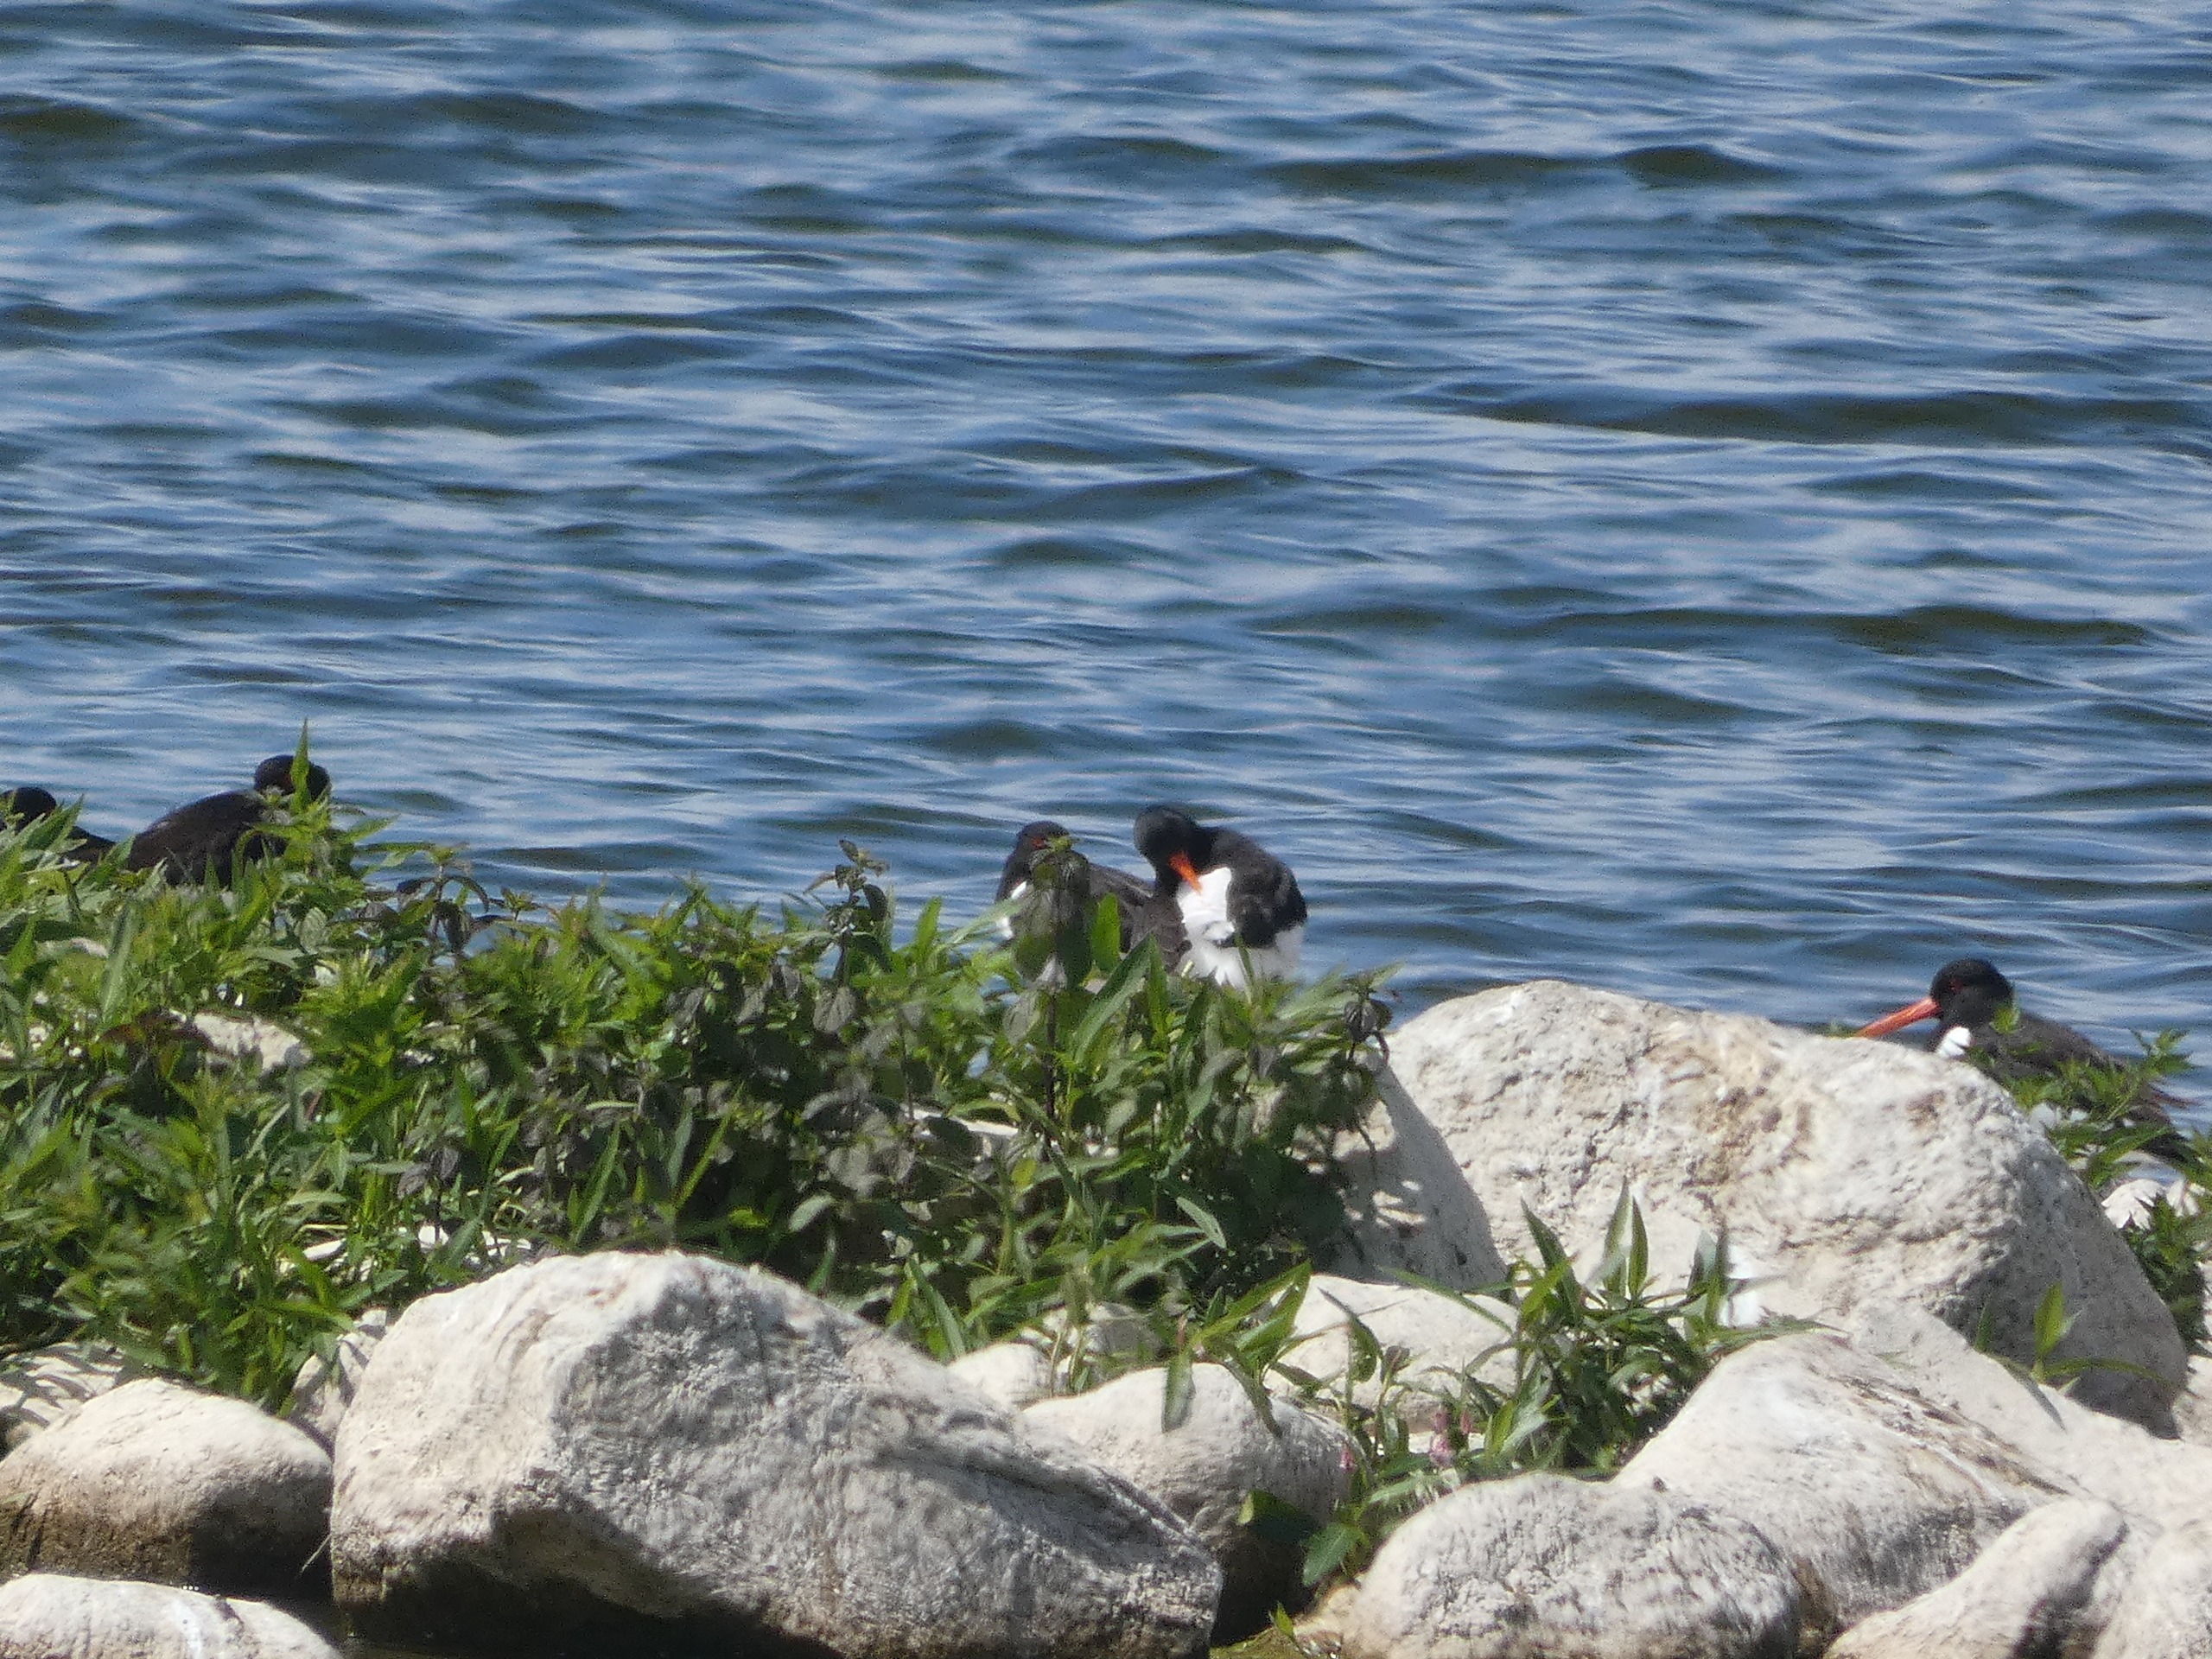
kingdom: Animalia
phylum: Chordata
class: Aves
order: Charadriiformes
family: Haematopodidae
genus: Haematopus
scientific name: Haematopus ostralegus
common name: Strandskade
